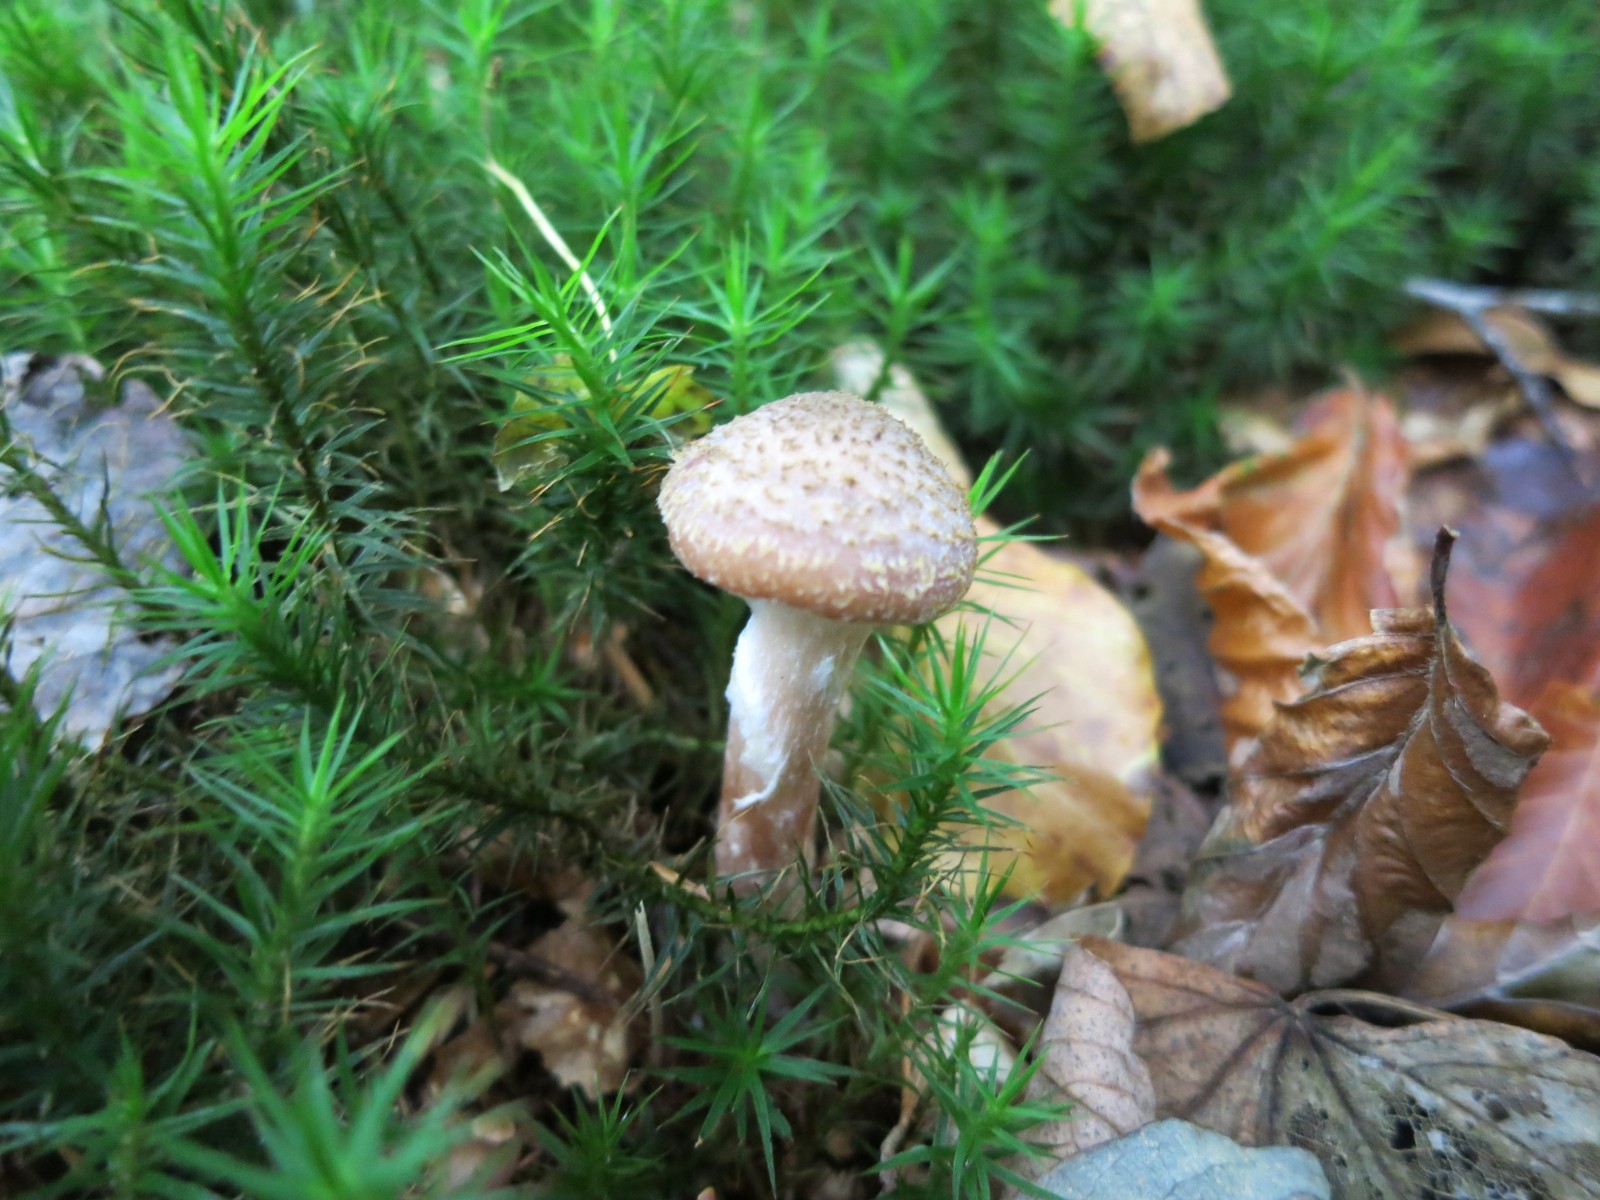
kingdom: Fungi
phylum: Basidiomycota
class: Agaricomycetes
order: Agaricales
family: Physalacriaceae
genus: Armillaria
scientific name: Armillaria lutea
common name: køllestokket honningsvamp
